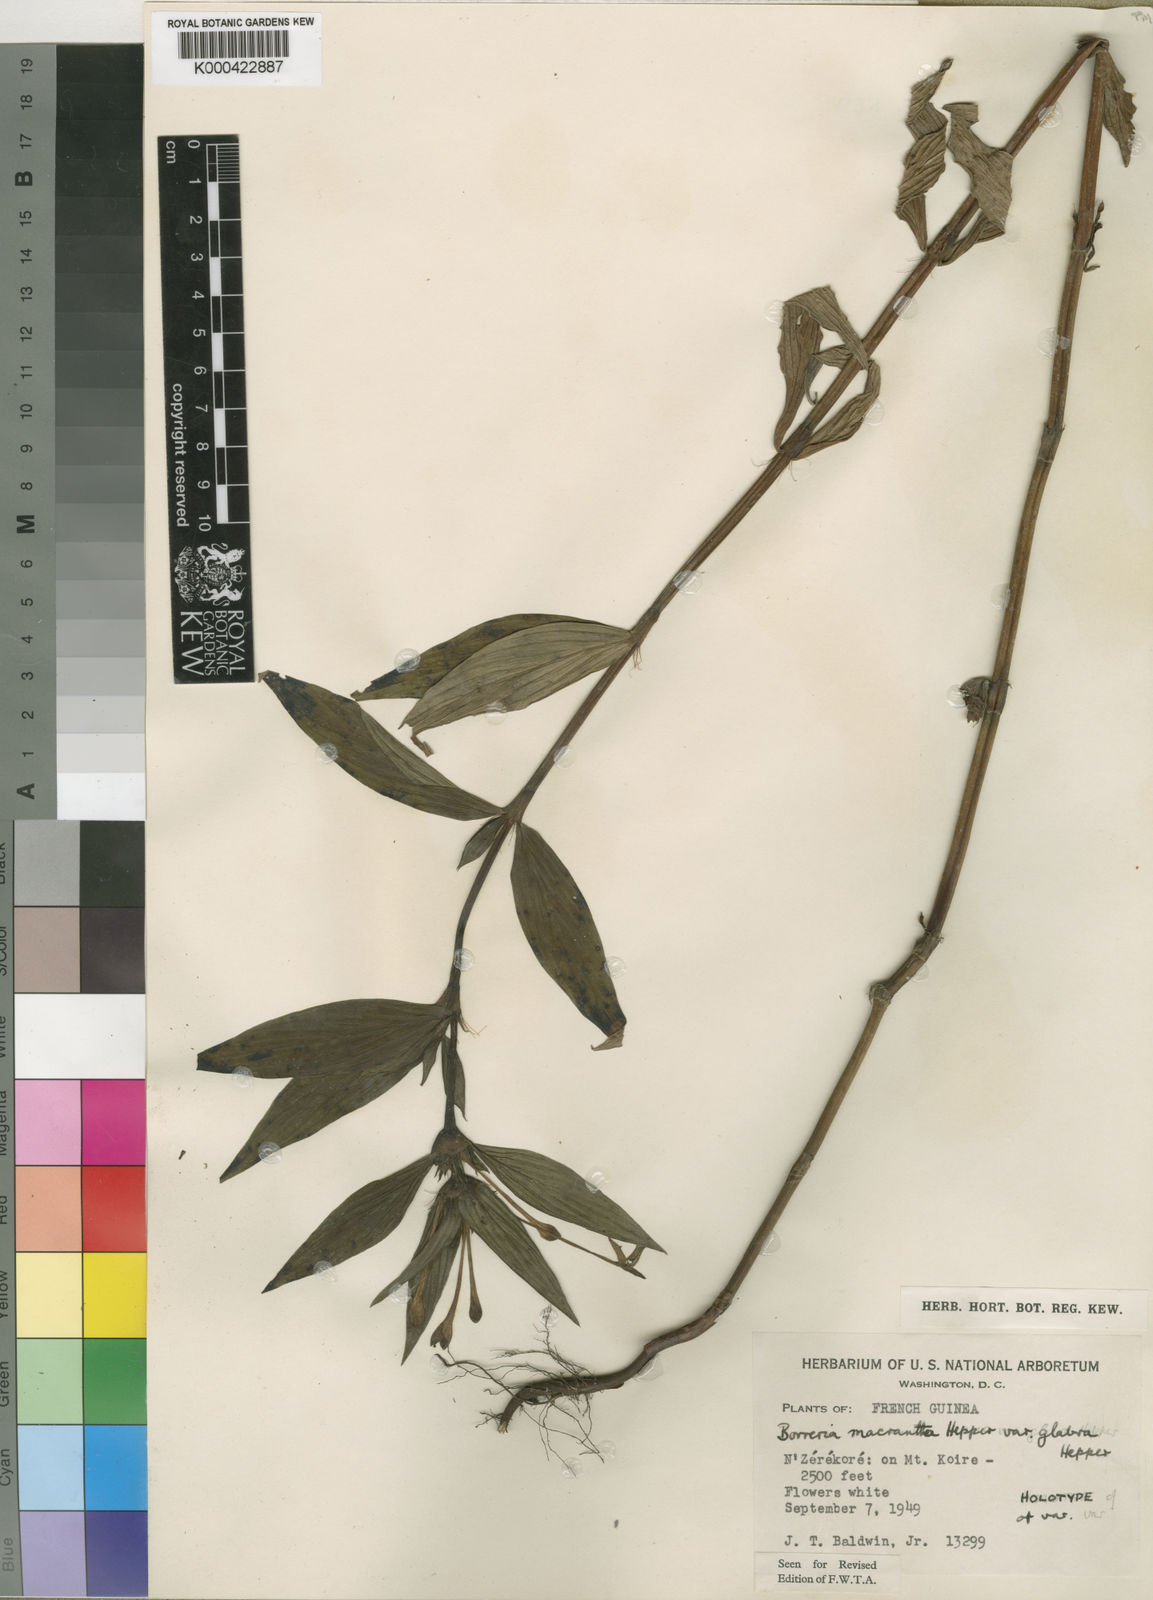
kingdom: Plantae
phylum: Tracheophyta
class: Magnoliopsida
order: Gentianales
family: Rubiaceae
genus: Spermacoce
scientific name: Spermacoce ivorensis
